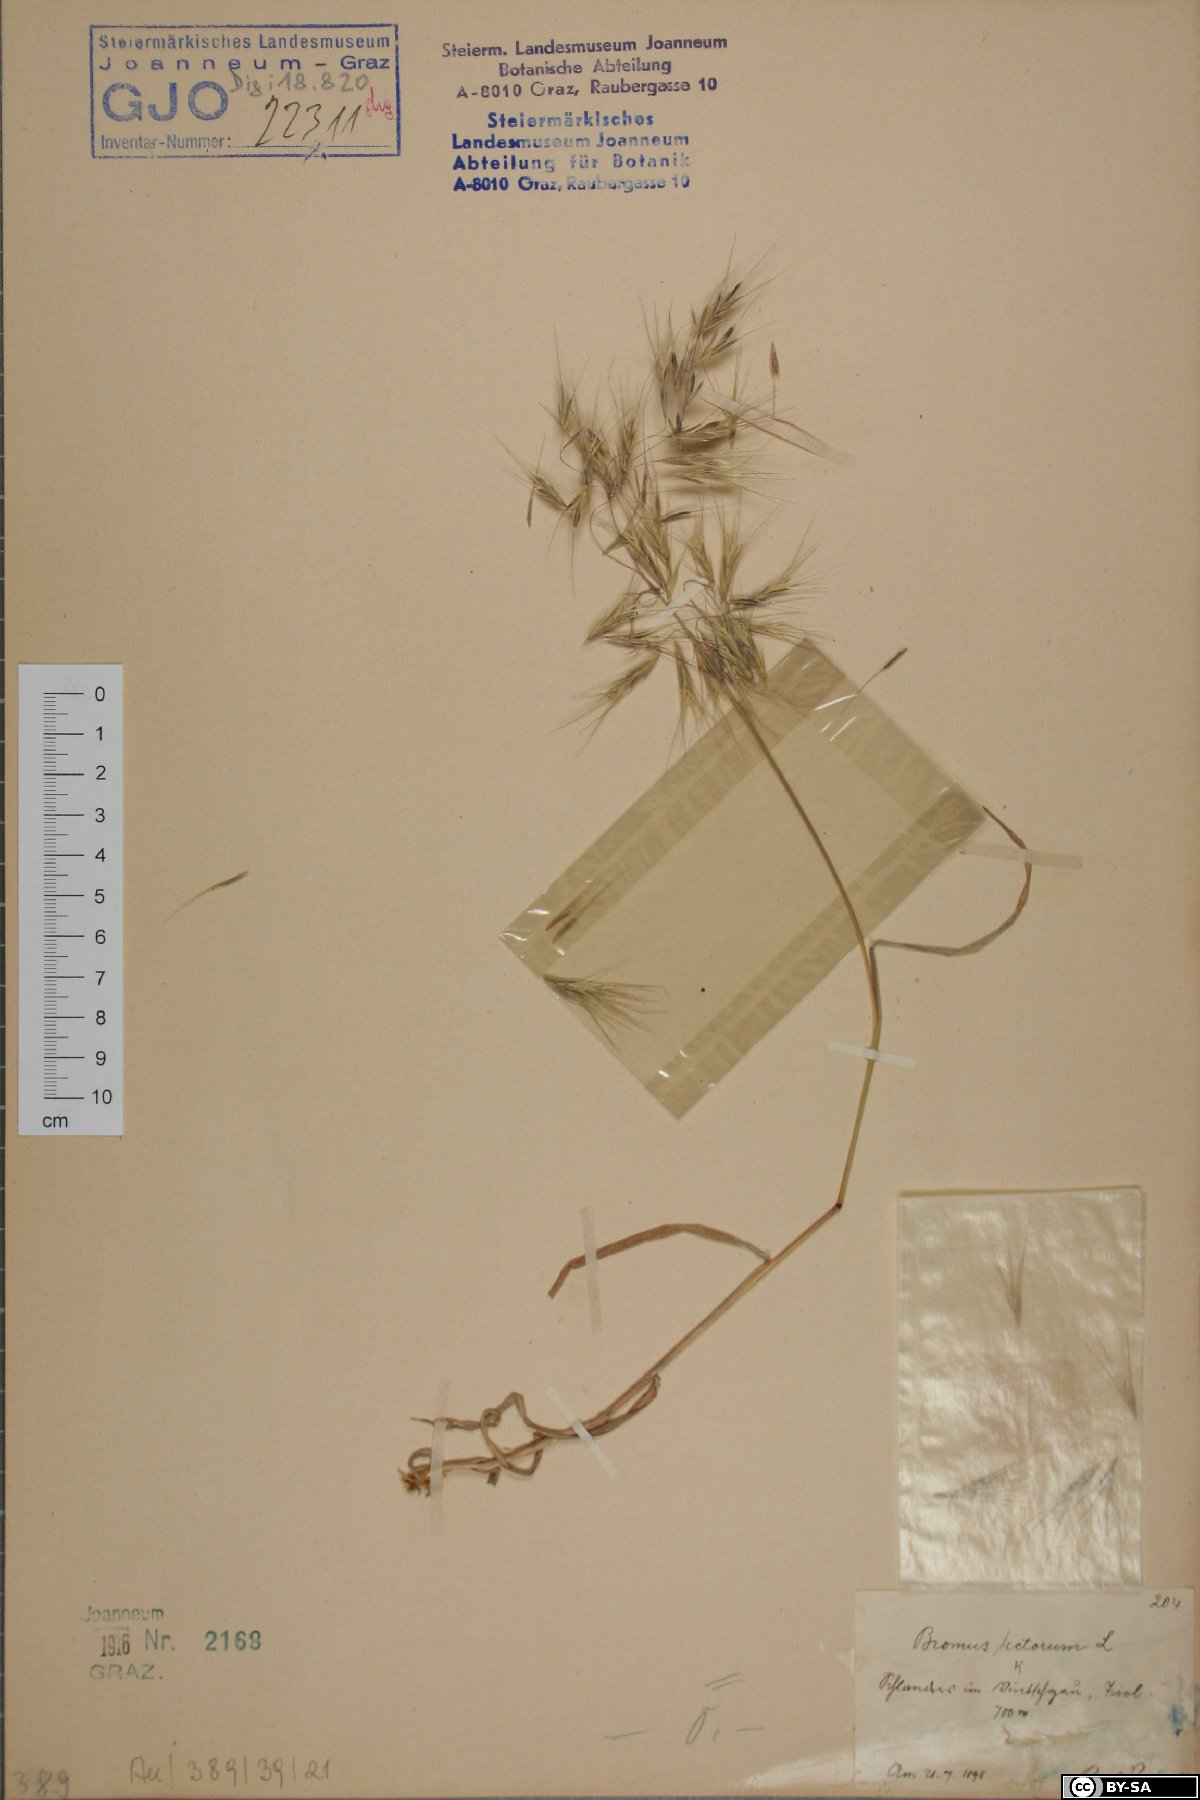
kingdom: Plantae
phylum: Tracheophyta
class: Liliopsida
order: Poales
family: Poaceae
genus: Bromus
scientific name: Bromus tectorum
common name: Cheatgrass
